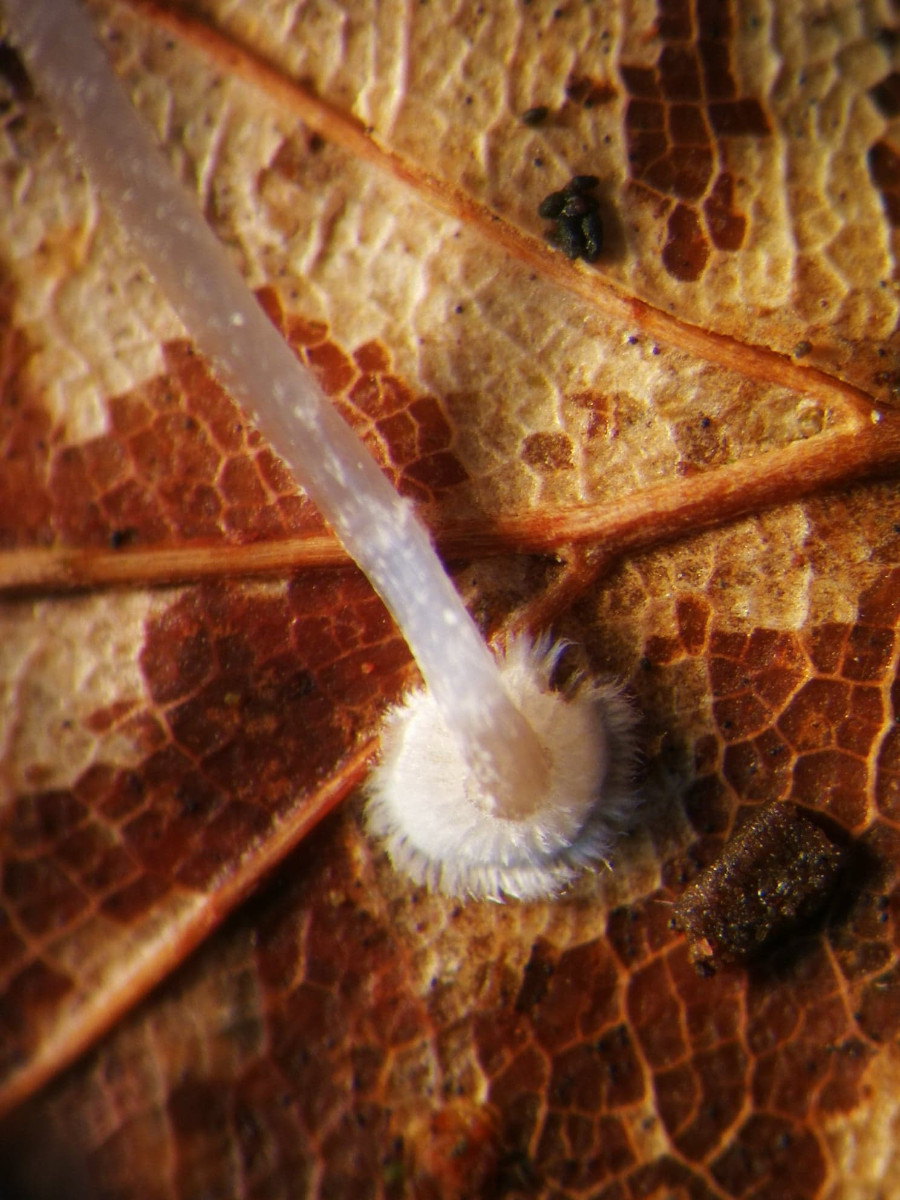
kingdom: Fungi
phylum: Basidiomycota
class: Agaricomycetes
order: Agaricales
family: Mycenaceae
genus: Mycena
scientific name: Mycena stylobates
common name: fureskivet huesvamp
